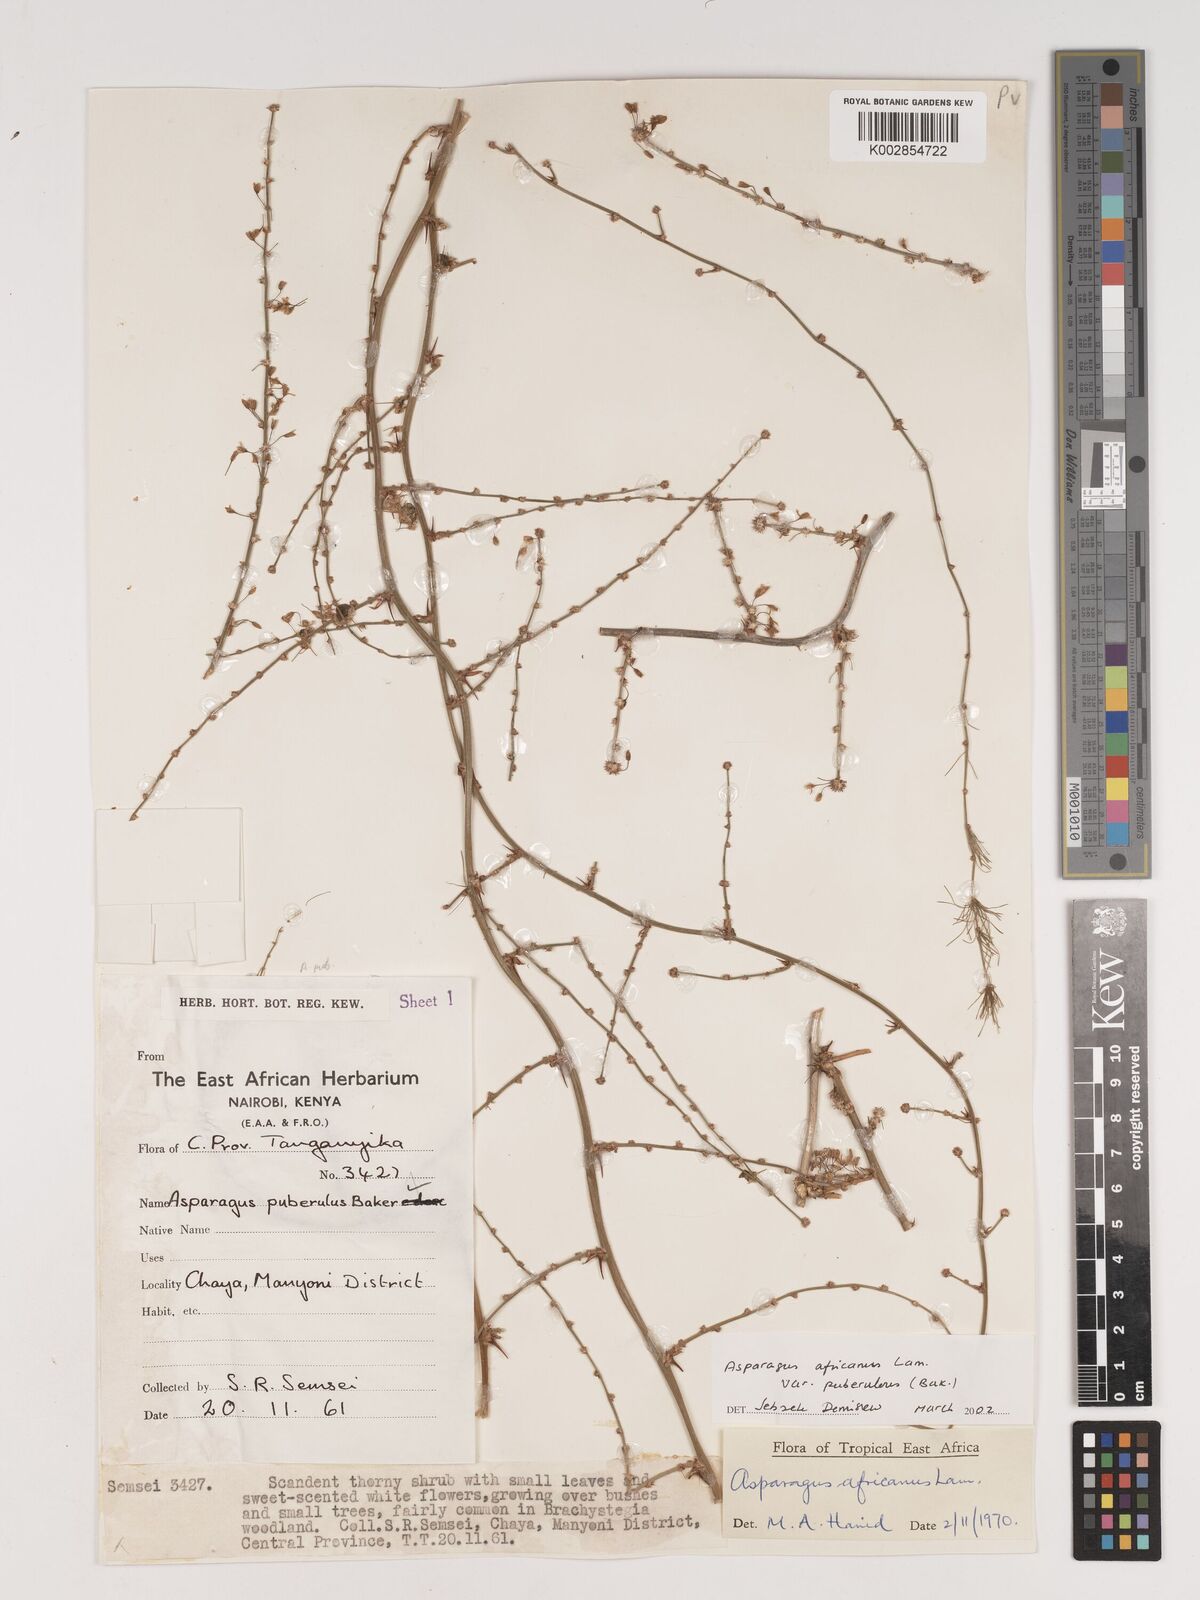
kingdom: Plantae
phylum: Tracheophyta
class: Liliopsida
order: Asparagales
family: Asparagaceae
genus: Asparagus
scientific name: Asparagus africanus
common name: Asparagus-fern
